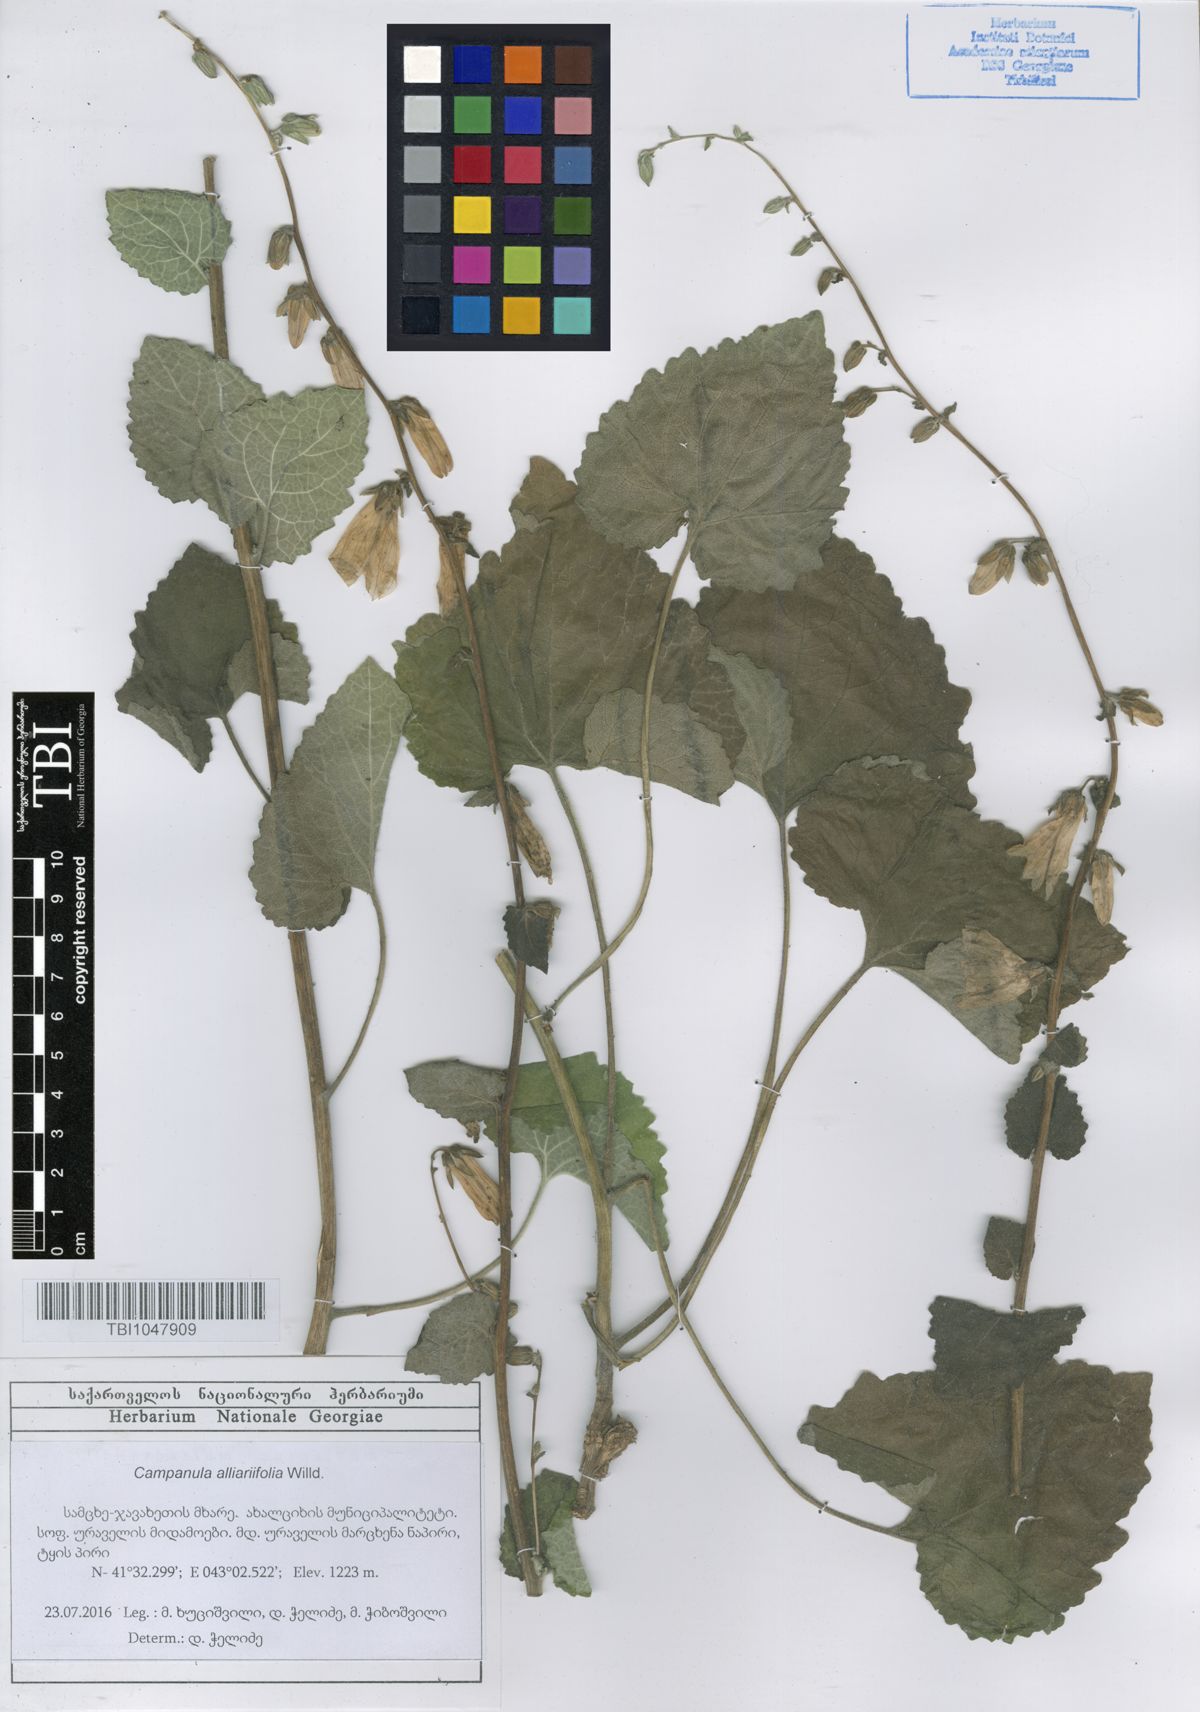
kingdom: Plantae
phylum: Tracheophyta
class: Magnoliopsida
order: Asterales
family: Campanulaceae
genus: Campanula
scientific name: Campanula alliariifolia
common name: Cornish bellflower
